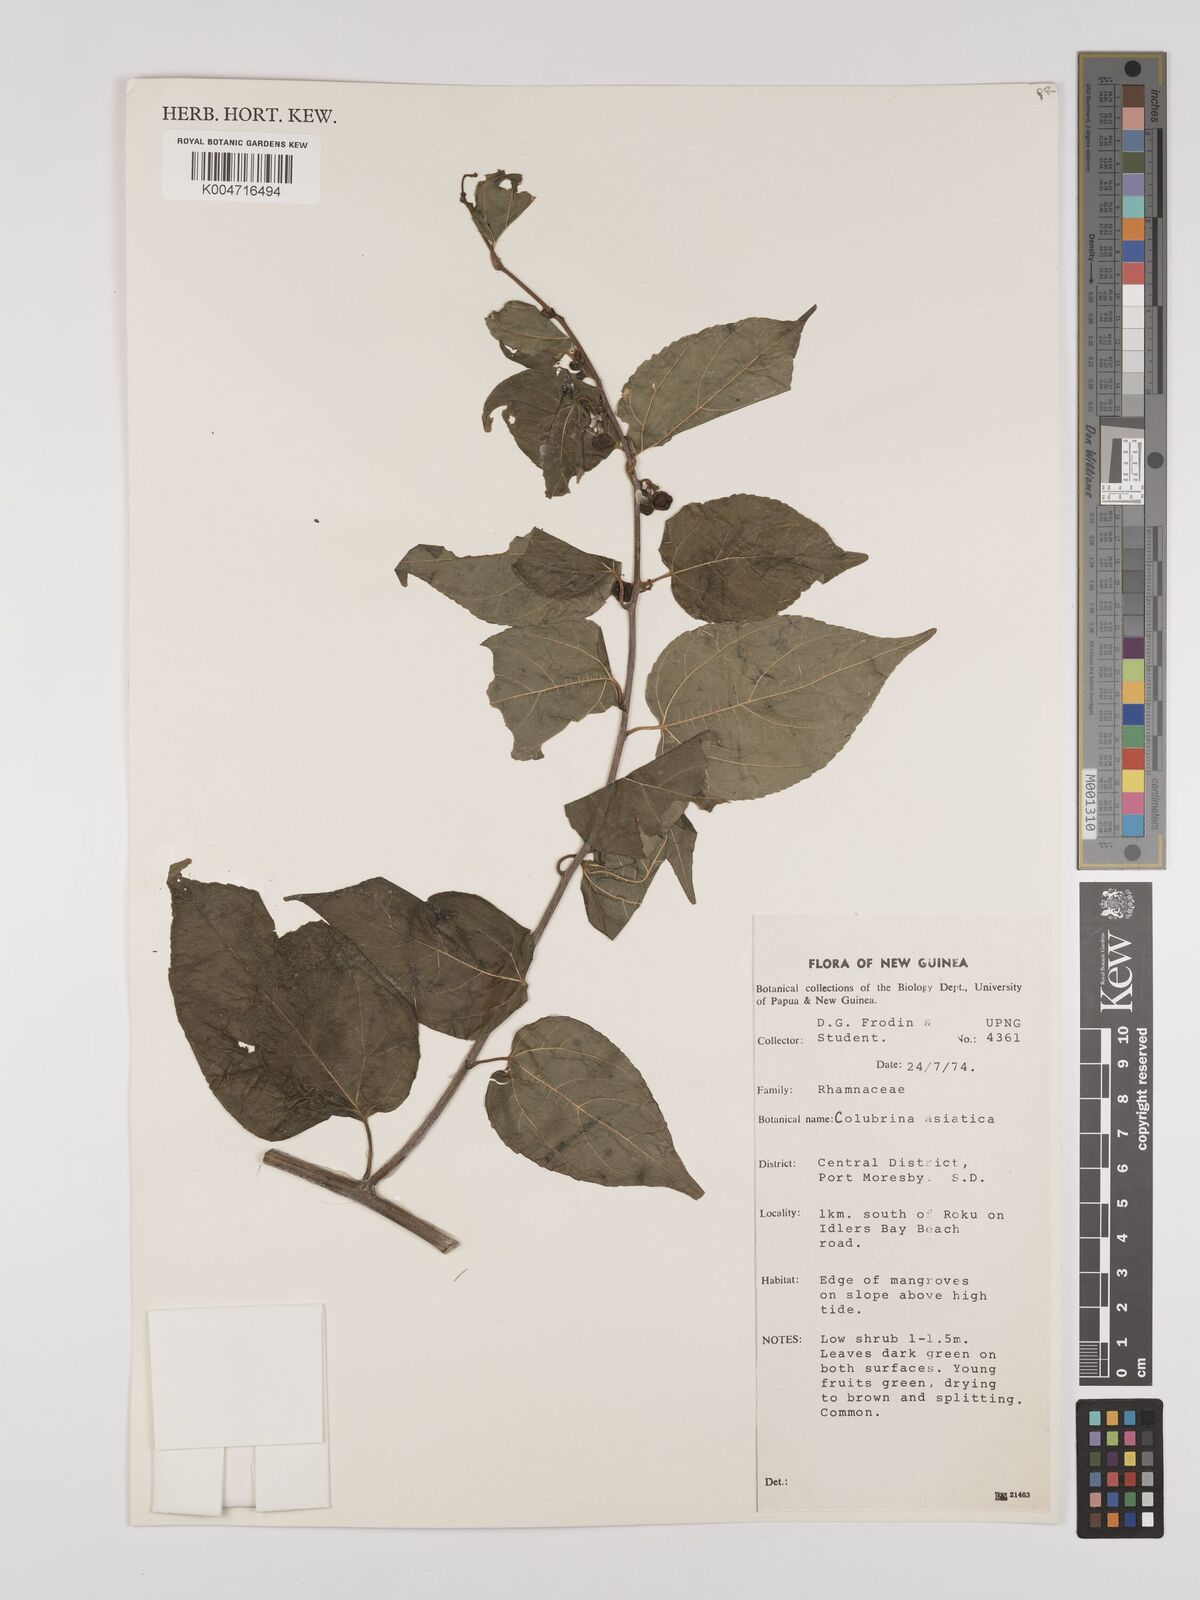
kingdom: Plantae
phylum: Tracheophyta
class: Magnoliopsida
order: Rosales
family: Rhamnaceae
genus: Colubrina
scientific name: Colubrina asiatica
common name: Asian nakedwood
